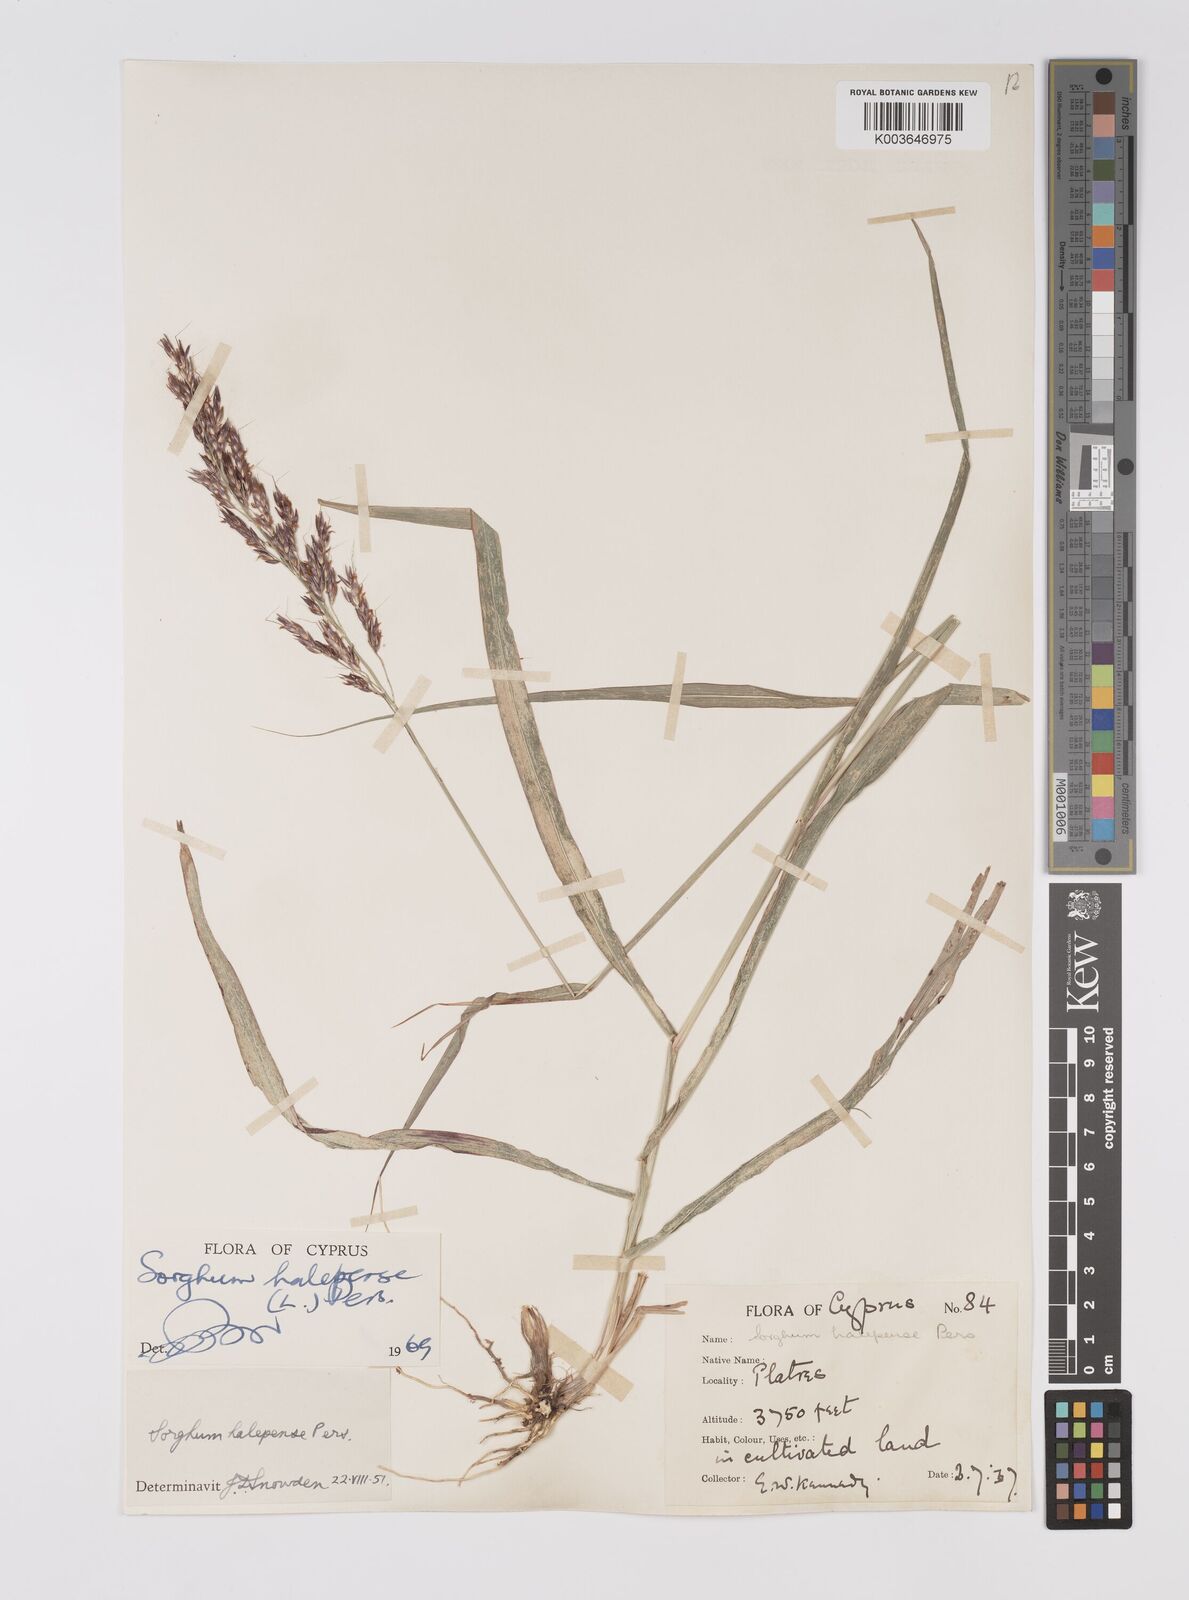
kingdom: Plantae
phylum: Tracheophyta
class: Liliopsida
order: Poales
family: Poaceae
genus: Sorghum
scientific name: Sorghum halepense
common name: Johnson-grass
